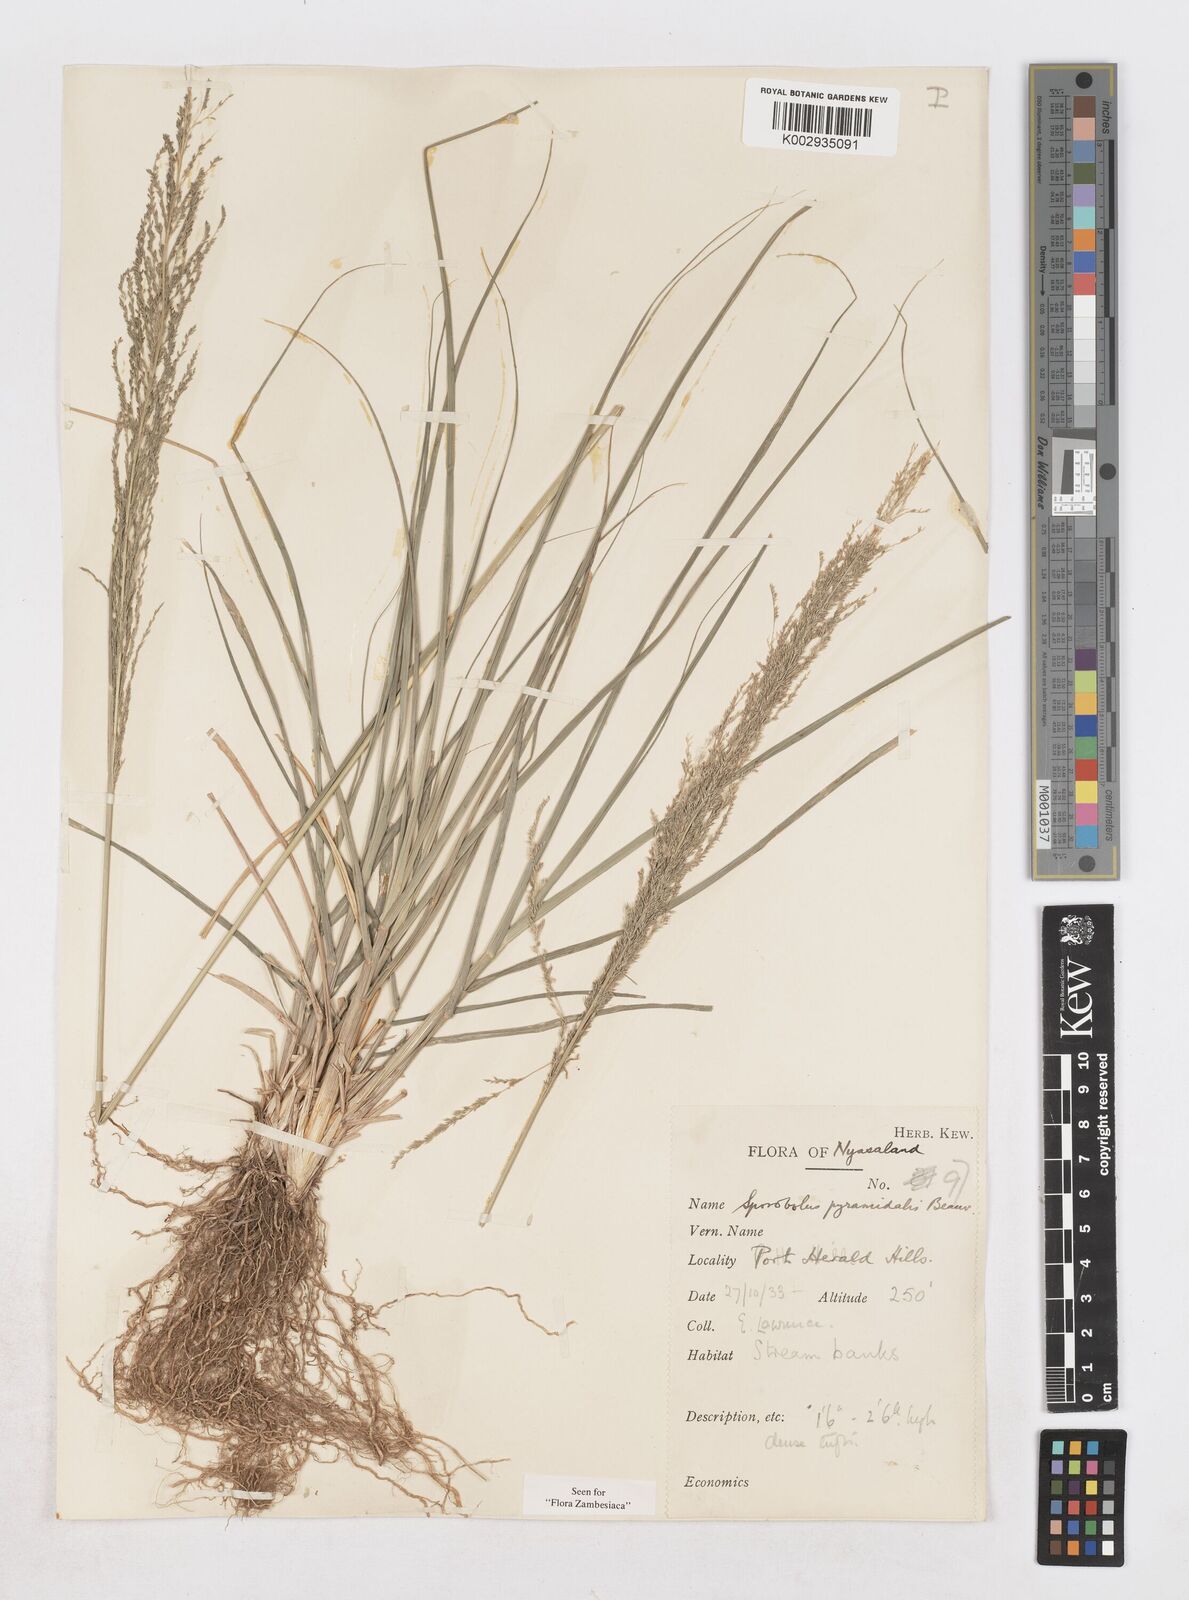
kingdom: Plantae
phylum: Tracheophyta
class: Liliopsida
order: Poales
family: Poaceae
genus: Sporobolus
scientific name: Sporobolus pyramidalis
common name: West indian dropseed
